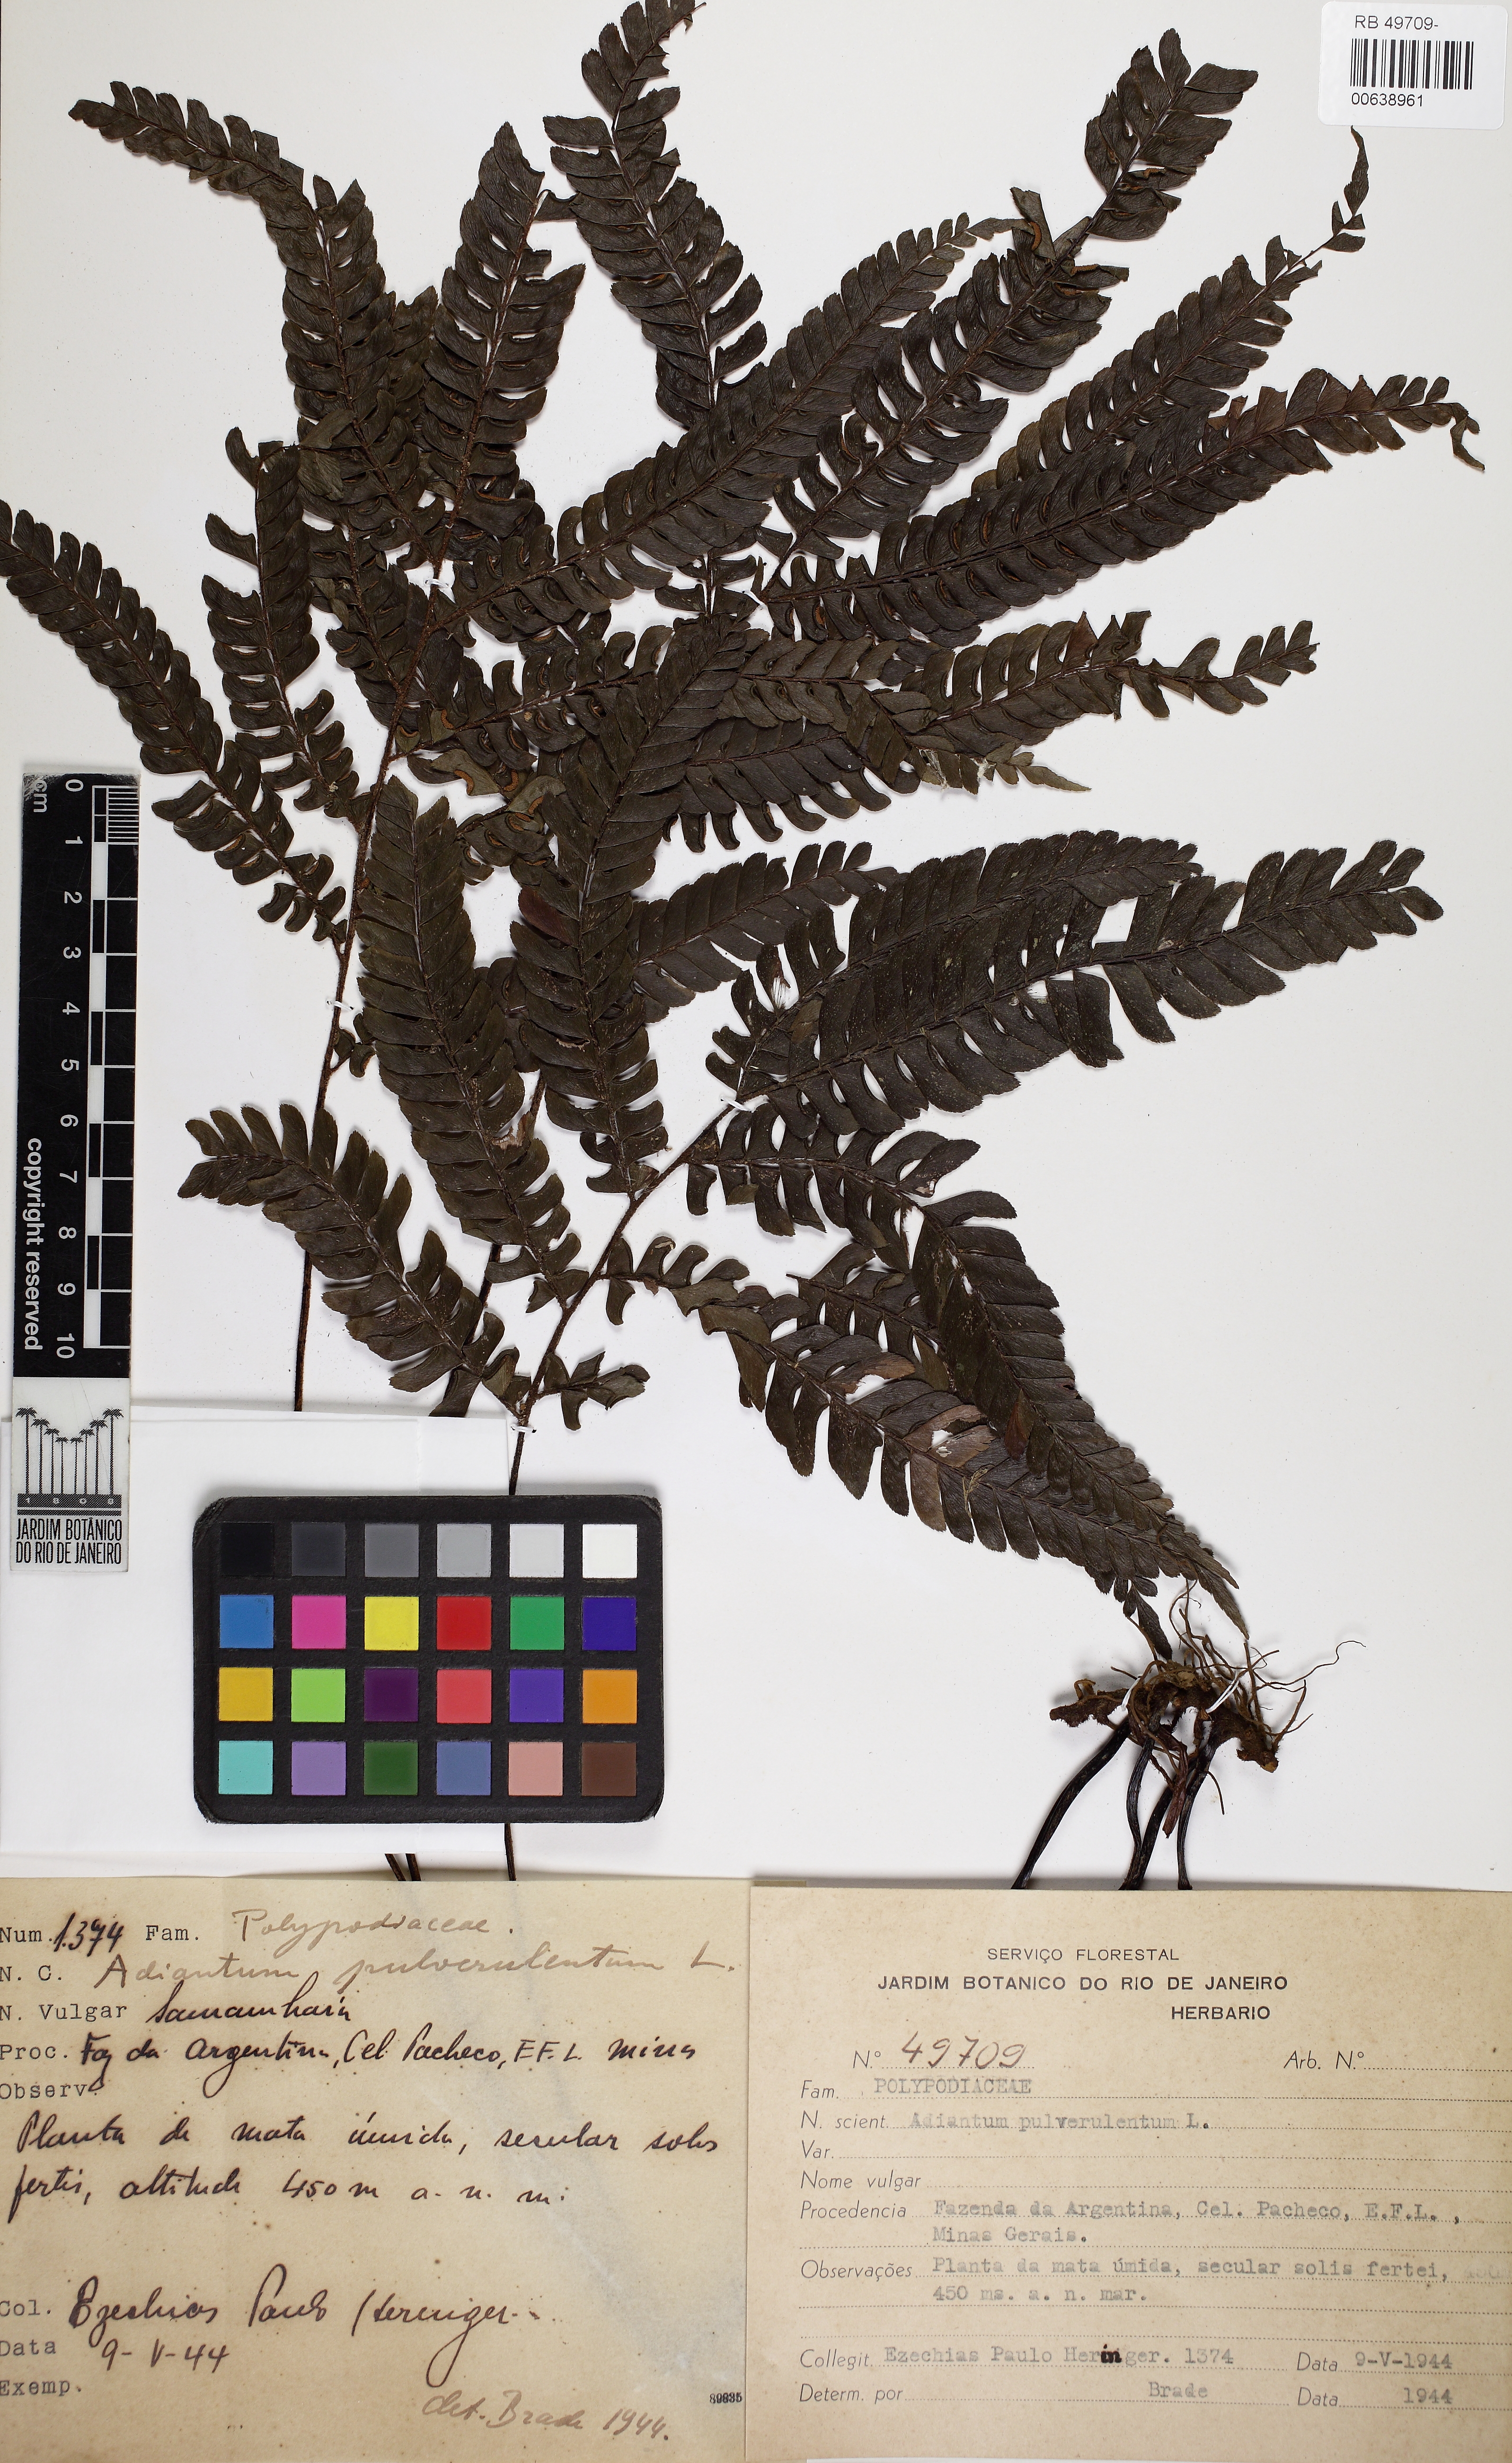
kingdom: Plantae
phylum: Tracheophyta
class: Polypodiopsida
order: Polypodiales
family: Pteridaceae
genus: Adiantum
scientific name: Adiantum pulverulentum
